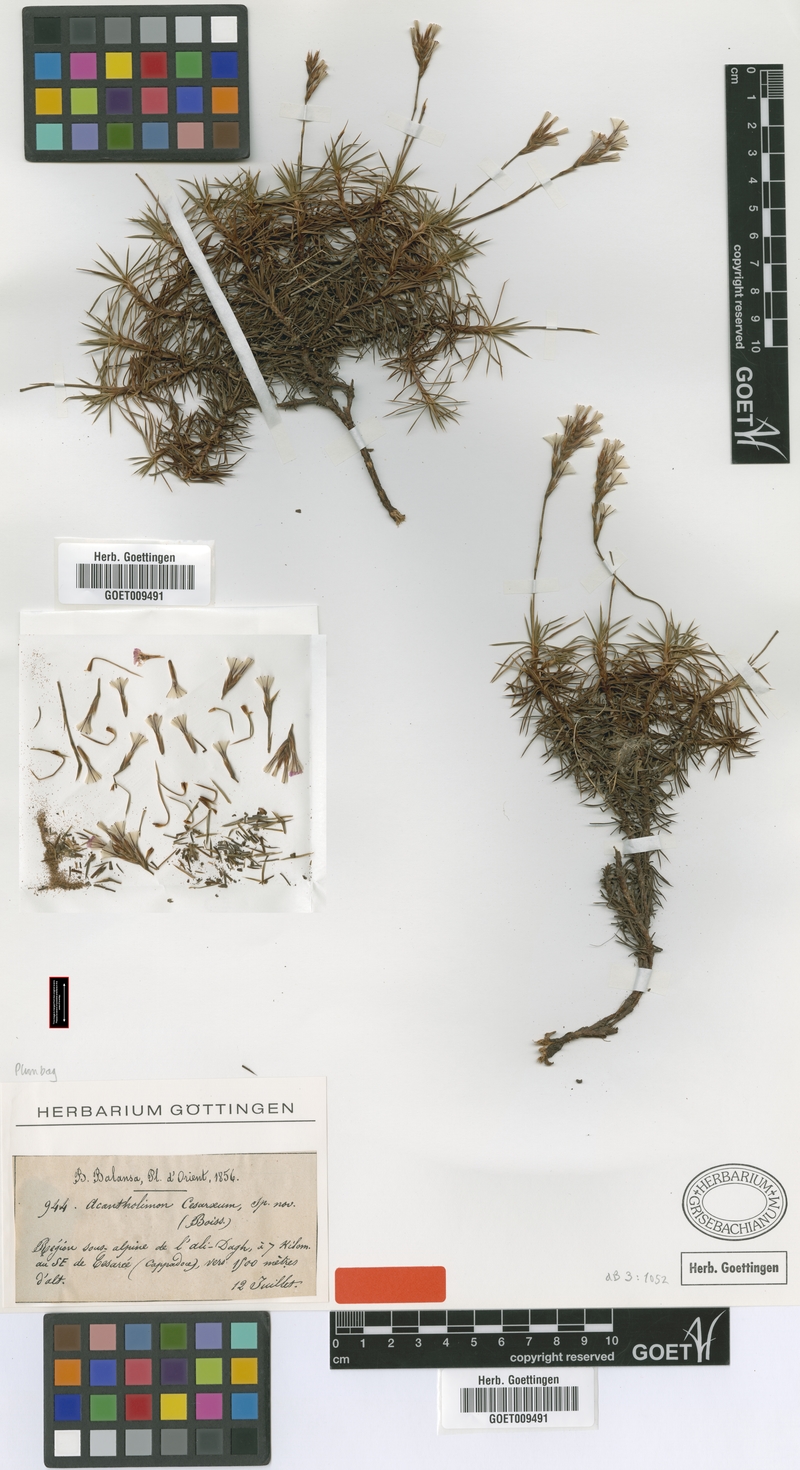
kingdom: Plantae
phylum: Tracheophyta
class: Magnoliopsida
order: Caryophyllales
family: Plumbaginaceae
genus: Acantholimon
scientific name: Acantholimon caesareum
